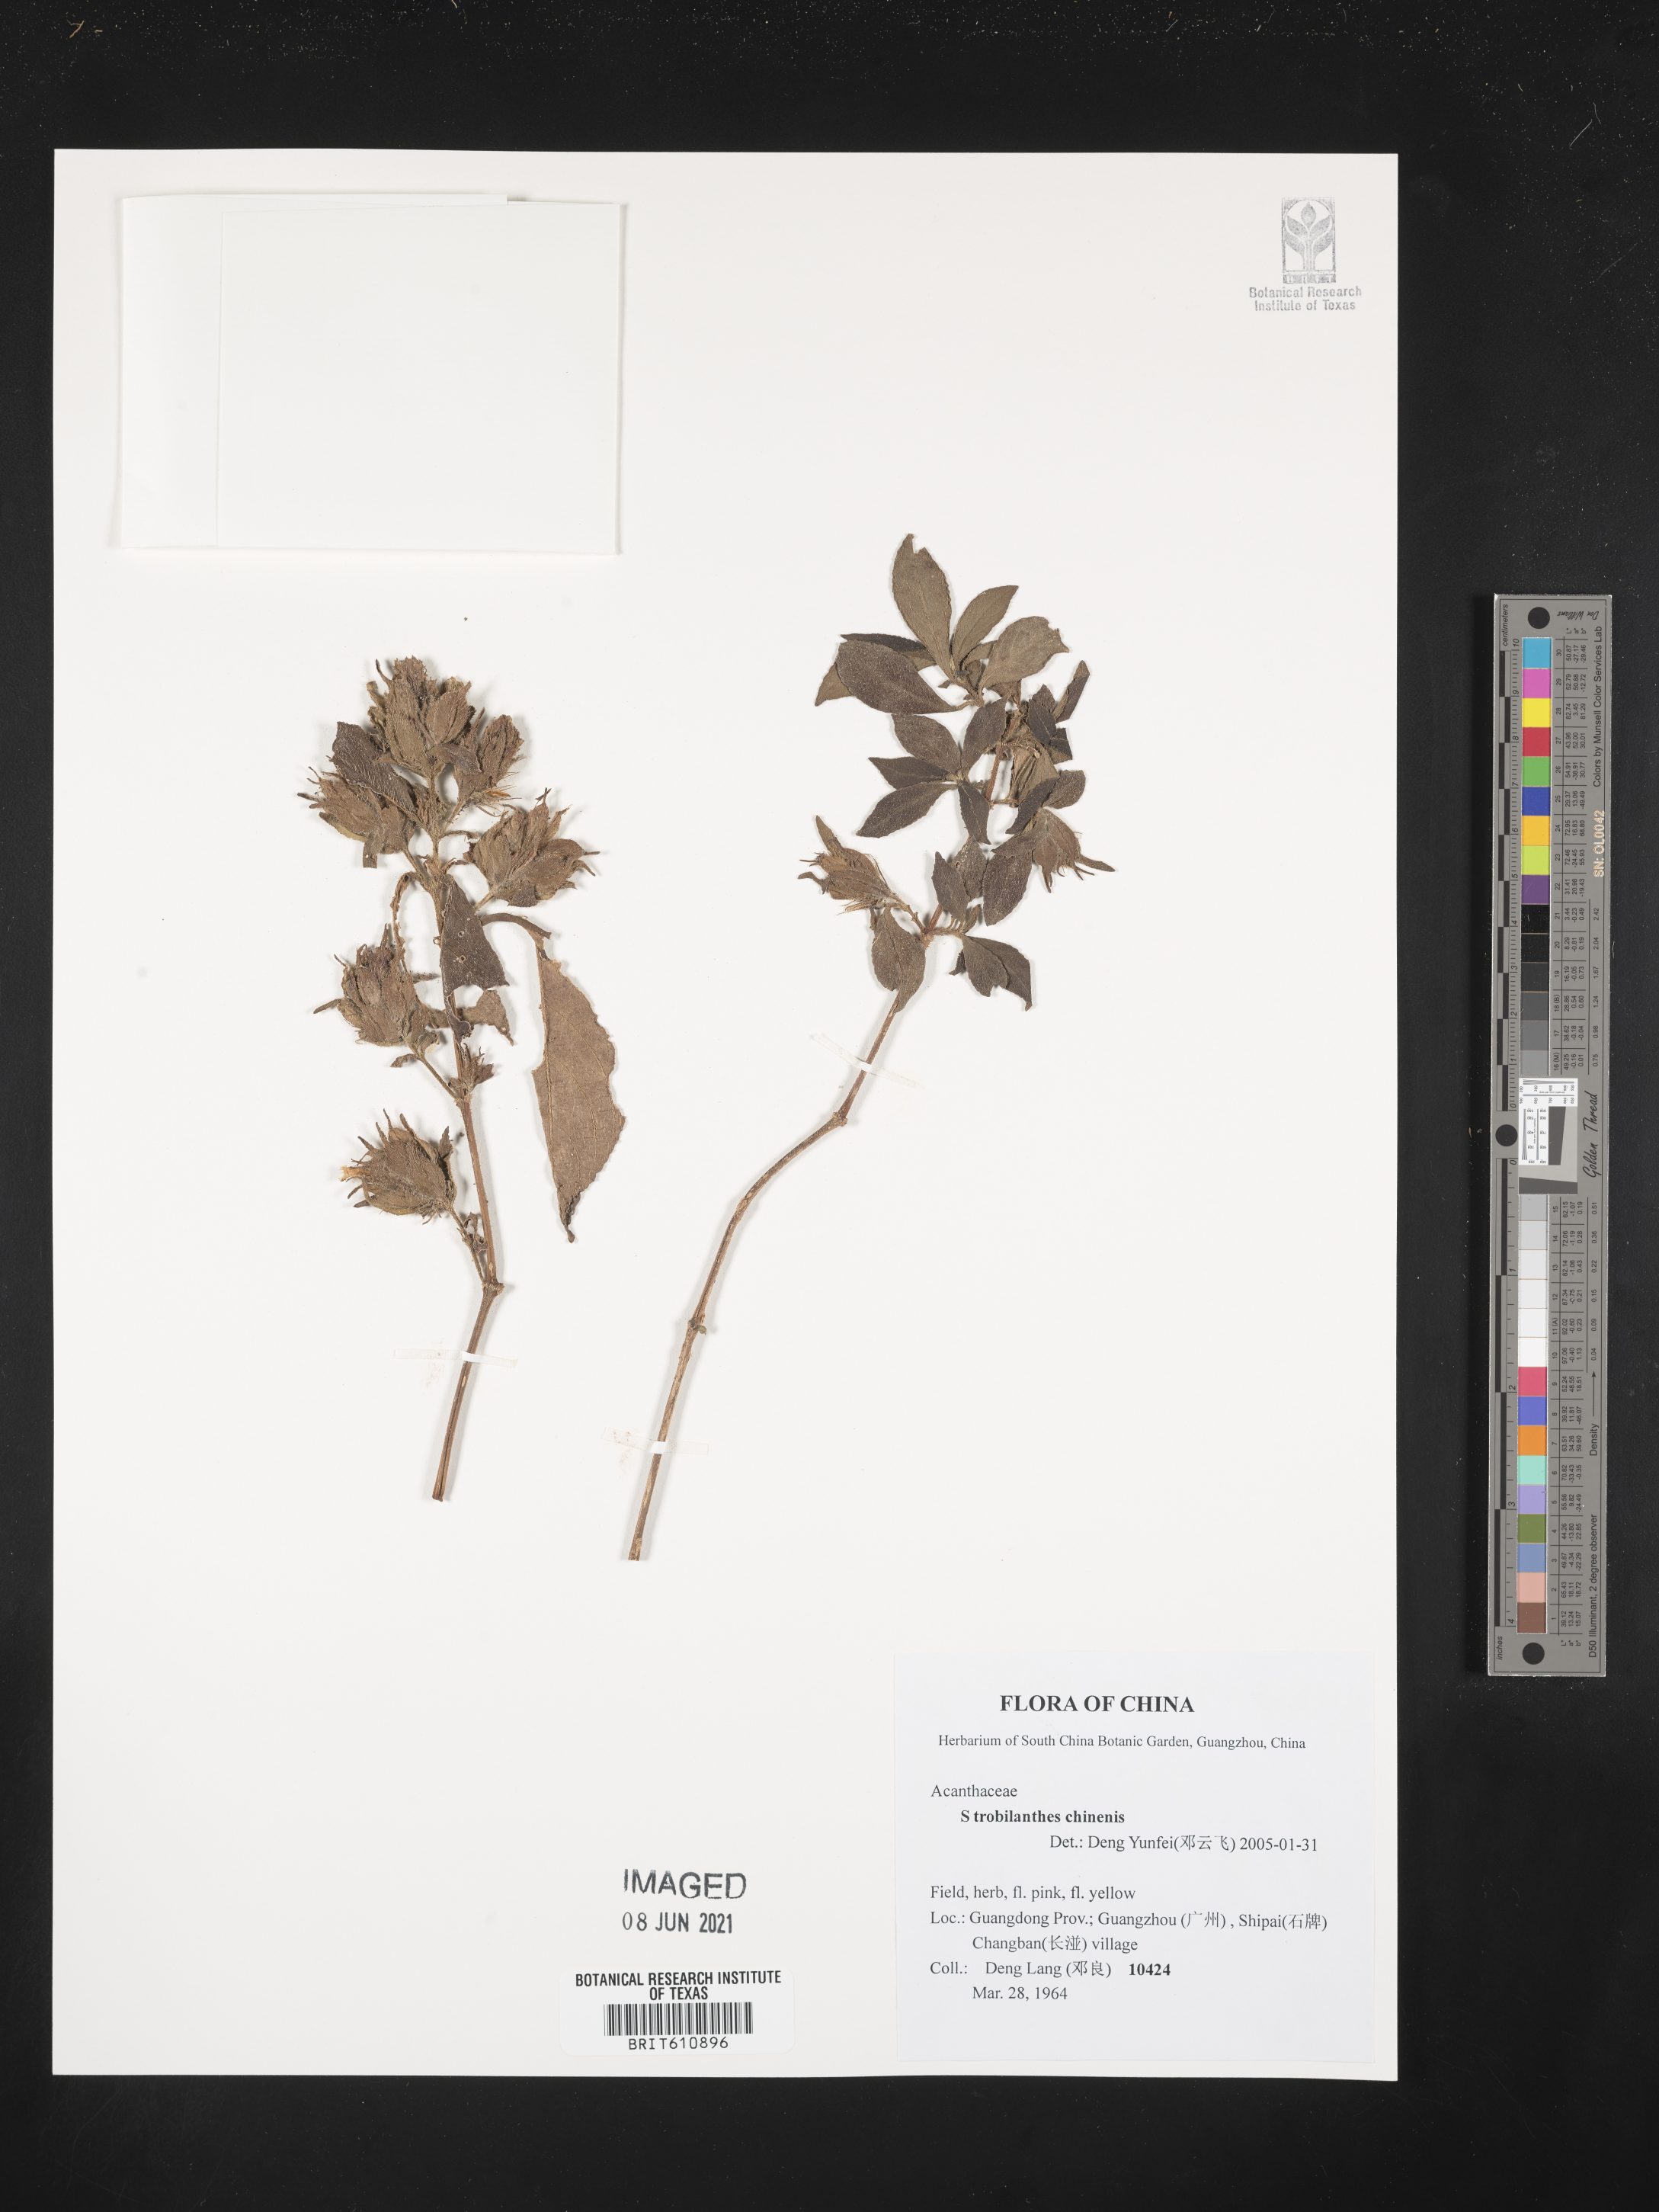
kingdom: Plantae
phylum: Tracheophyta
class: Magnoliopsida
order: Lamiales
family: Acanthaceae
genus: Strobilanthes
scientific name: Strobilanthes chinensis
